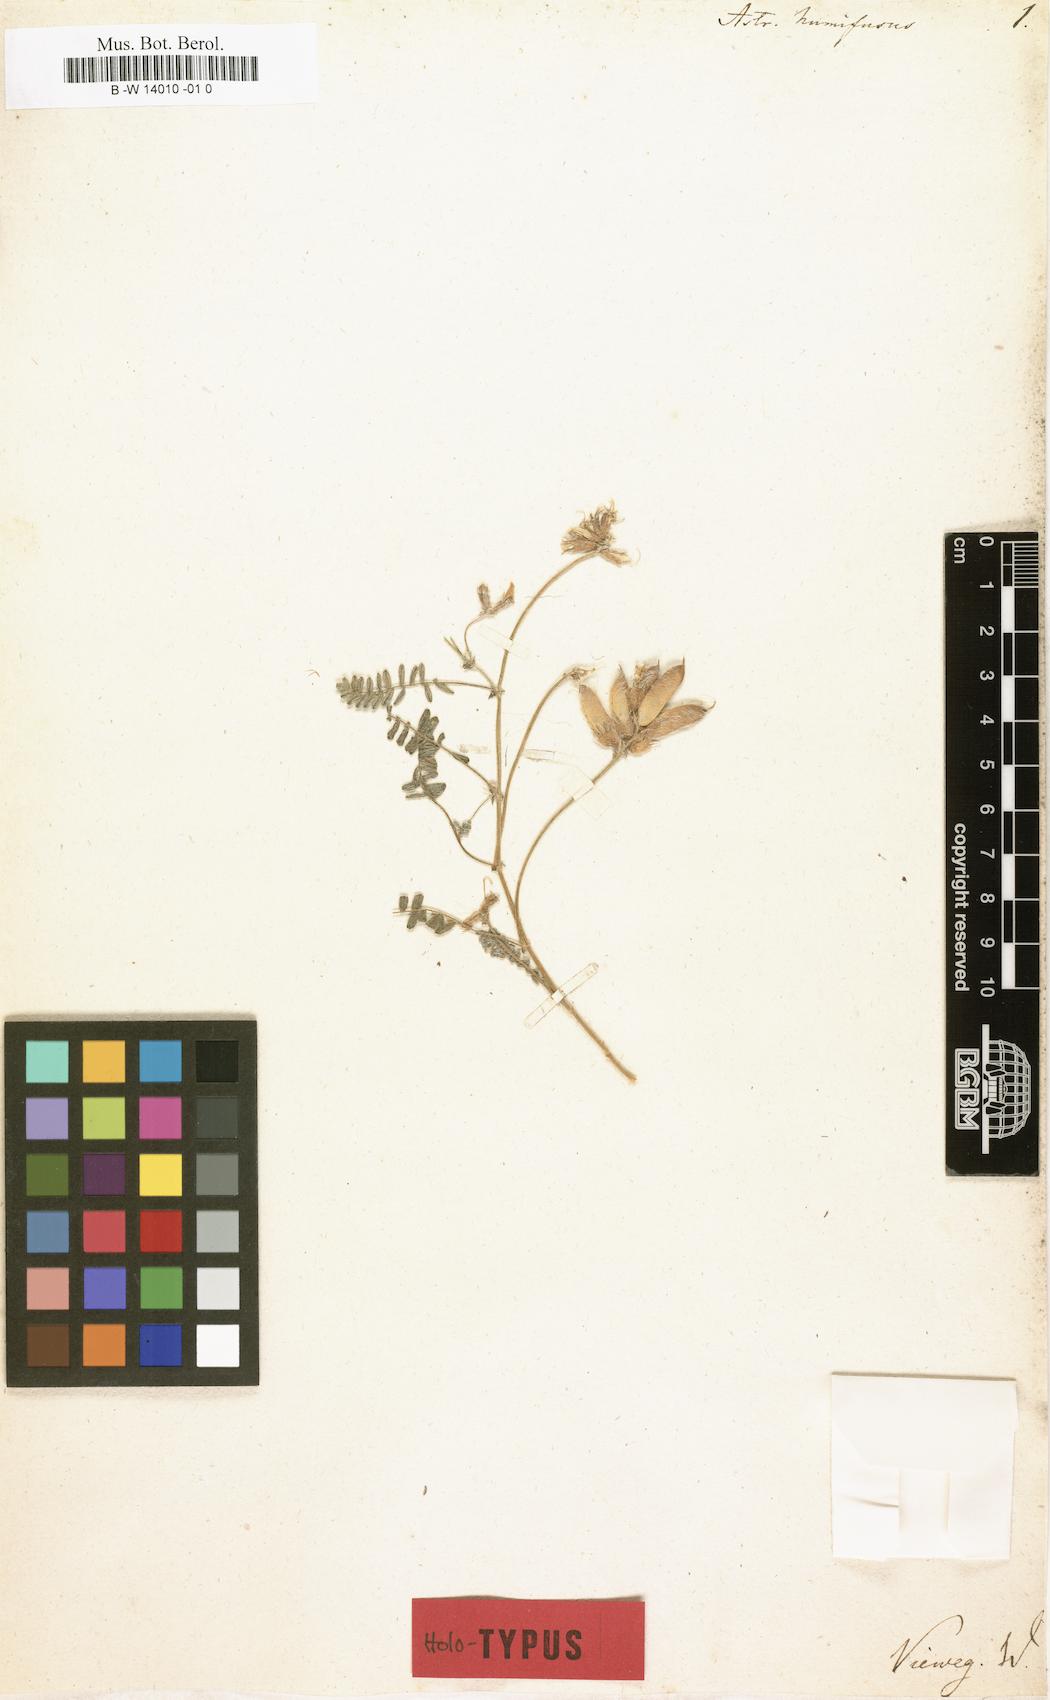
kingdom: Plantae
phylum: Tracheophyta
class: Magnoliopsida
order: Fabales
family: Fabaceae
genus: Astragalus
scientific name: Astragalus subumbellatus
